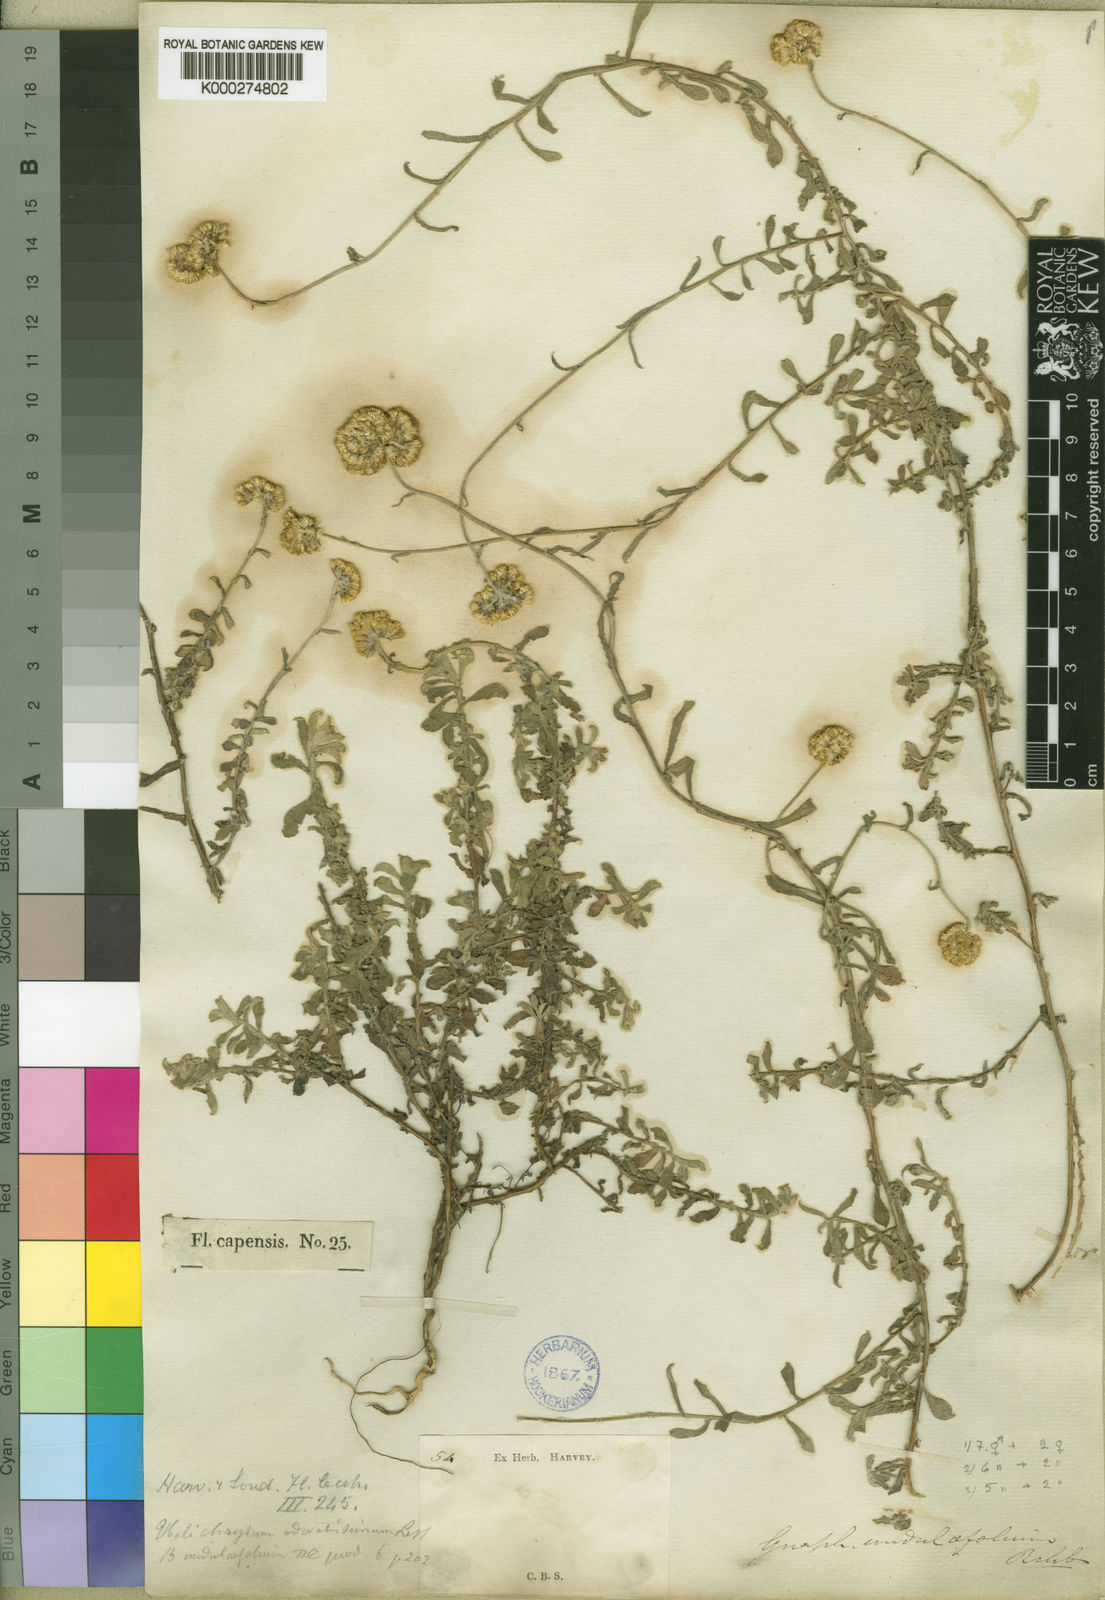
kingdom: Plantae
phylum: Tracheophyta
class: Magnoliopsida
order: Asterales
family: Asteraceae
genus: Helichrysum
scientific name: Helichrysum gymnocomum
